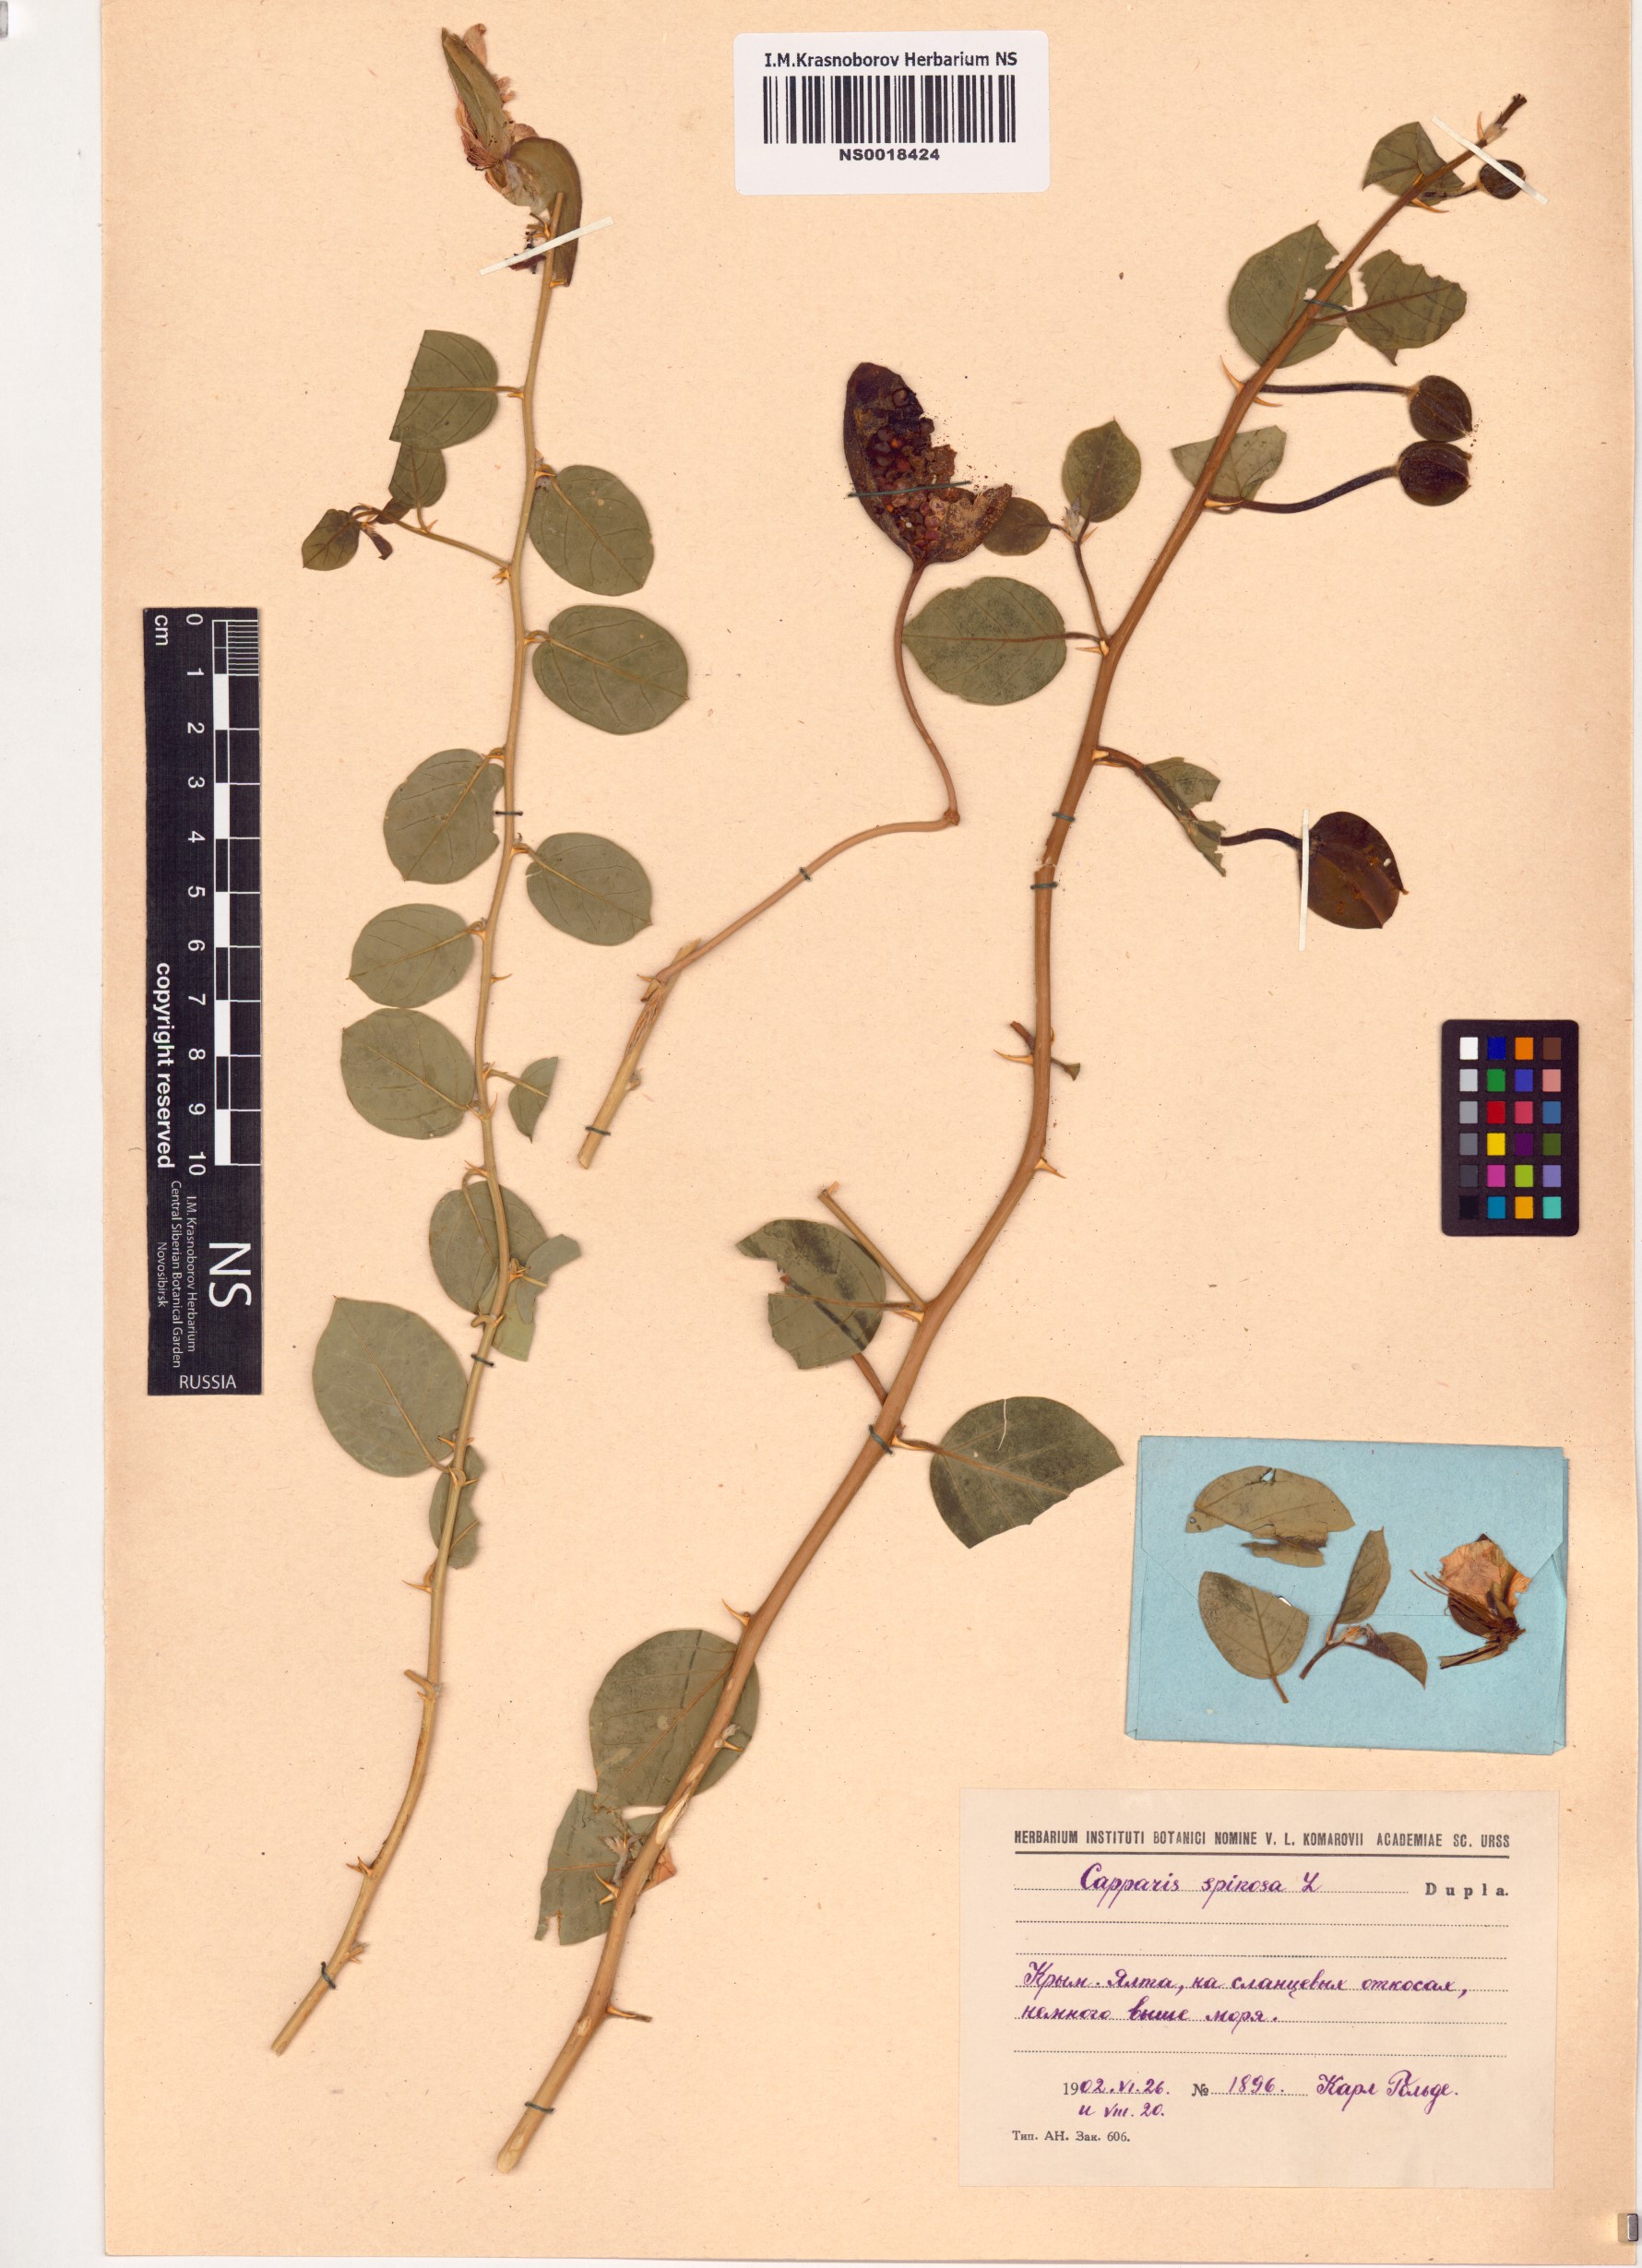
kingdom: Plantae
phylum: Tracheophyta
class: Magnoliopsida
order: Brassicales
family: Capparaceae
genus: Capparis
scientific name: Capparis spinosa
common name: Caper
